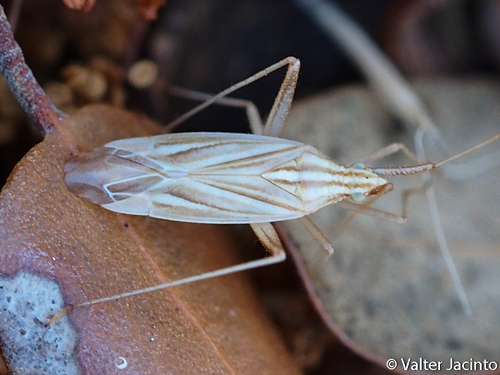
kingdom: Animalia
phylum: Arthropoda
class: Insecta
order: Hemiptera
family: Miridae
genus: Miridius
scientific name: Miridius quadrivirgatus
